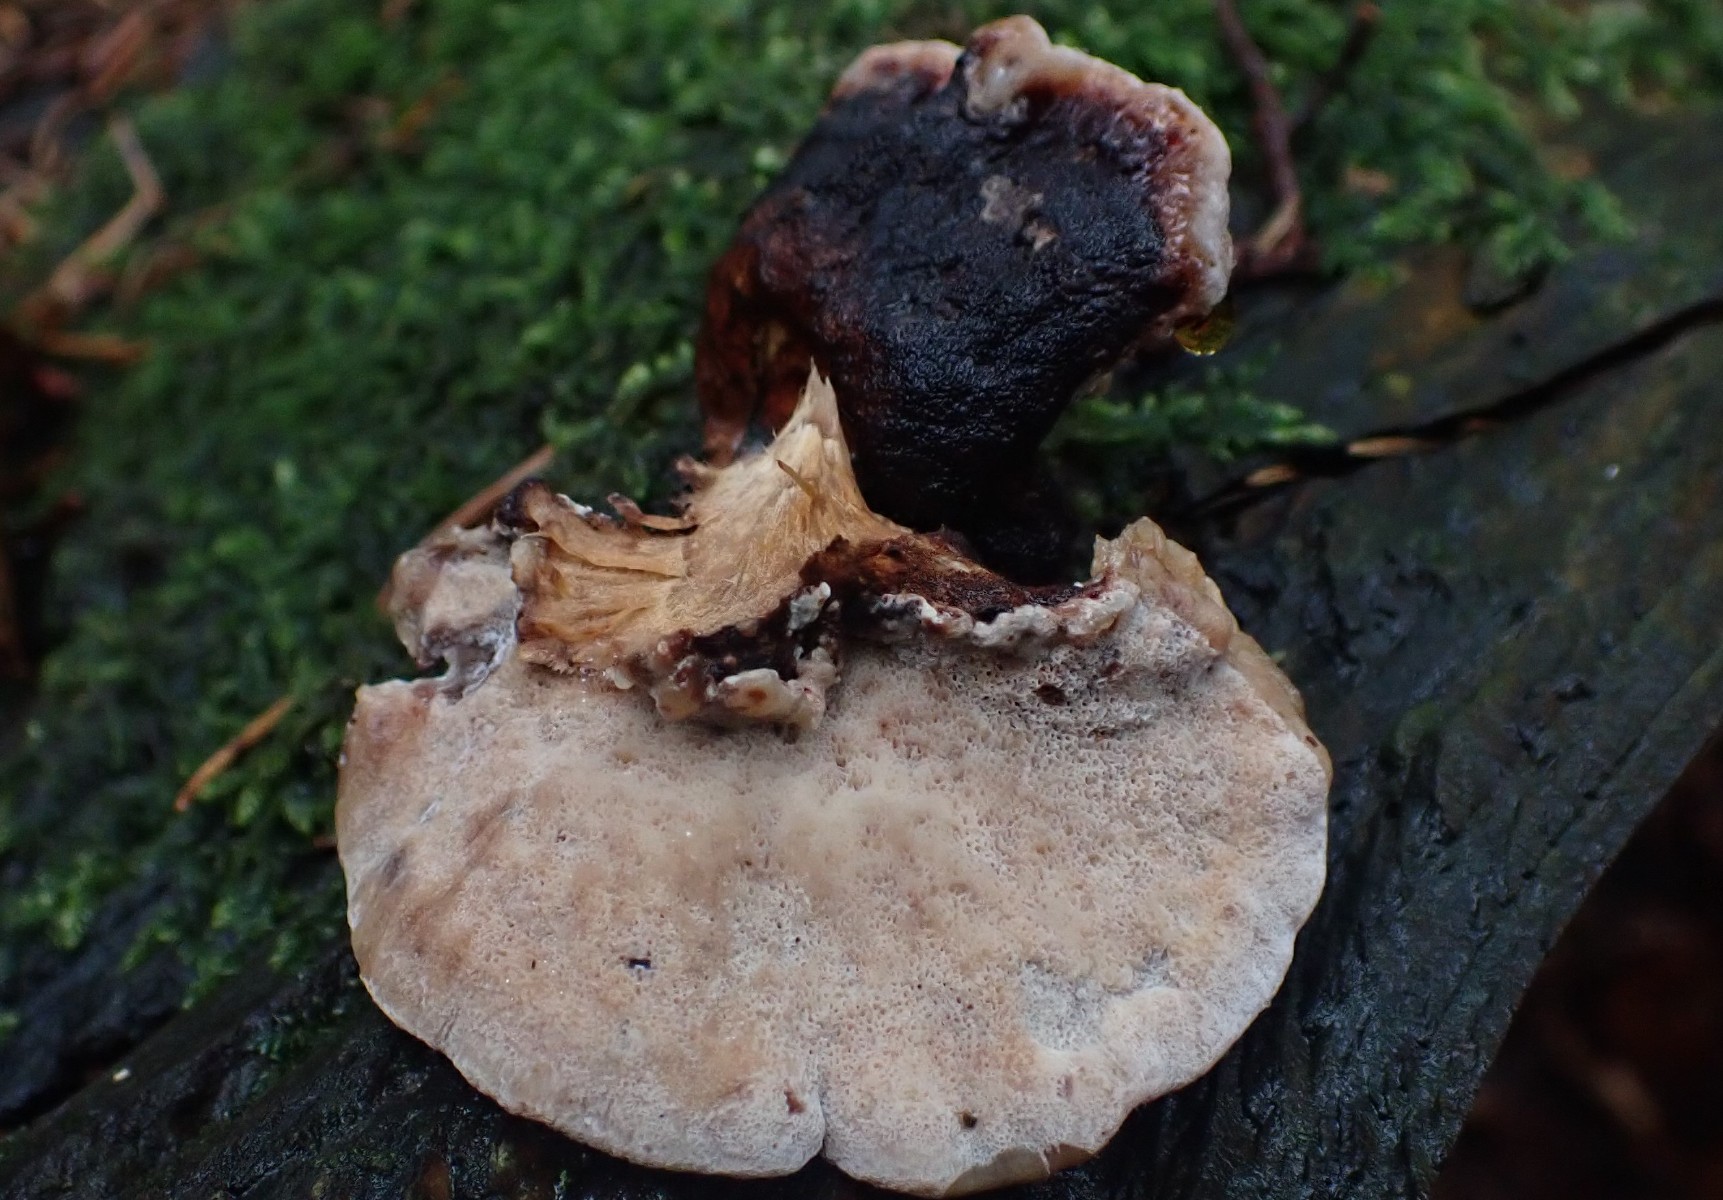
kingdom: Fungi
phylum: Basidiomycota
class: Agaricomycetes
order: Polyporales
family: Ischnodermataceae
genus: Ischnoderma
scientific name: Ischnoderma benzoinum
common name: gran-tjæreporesvamp
